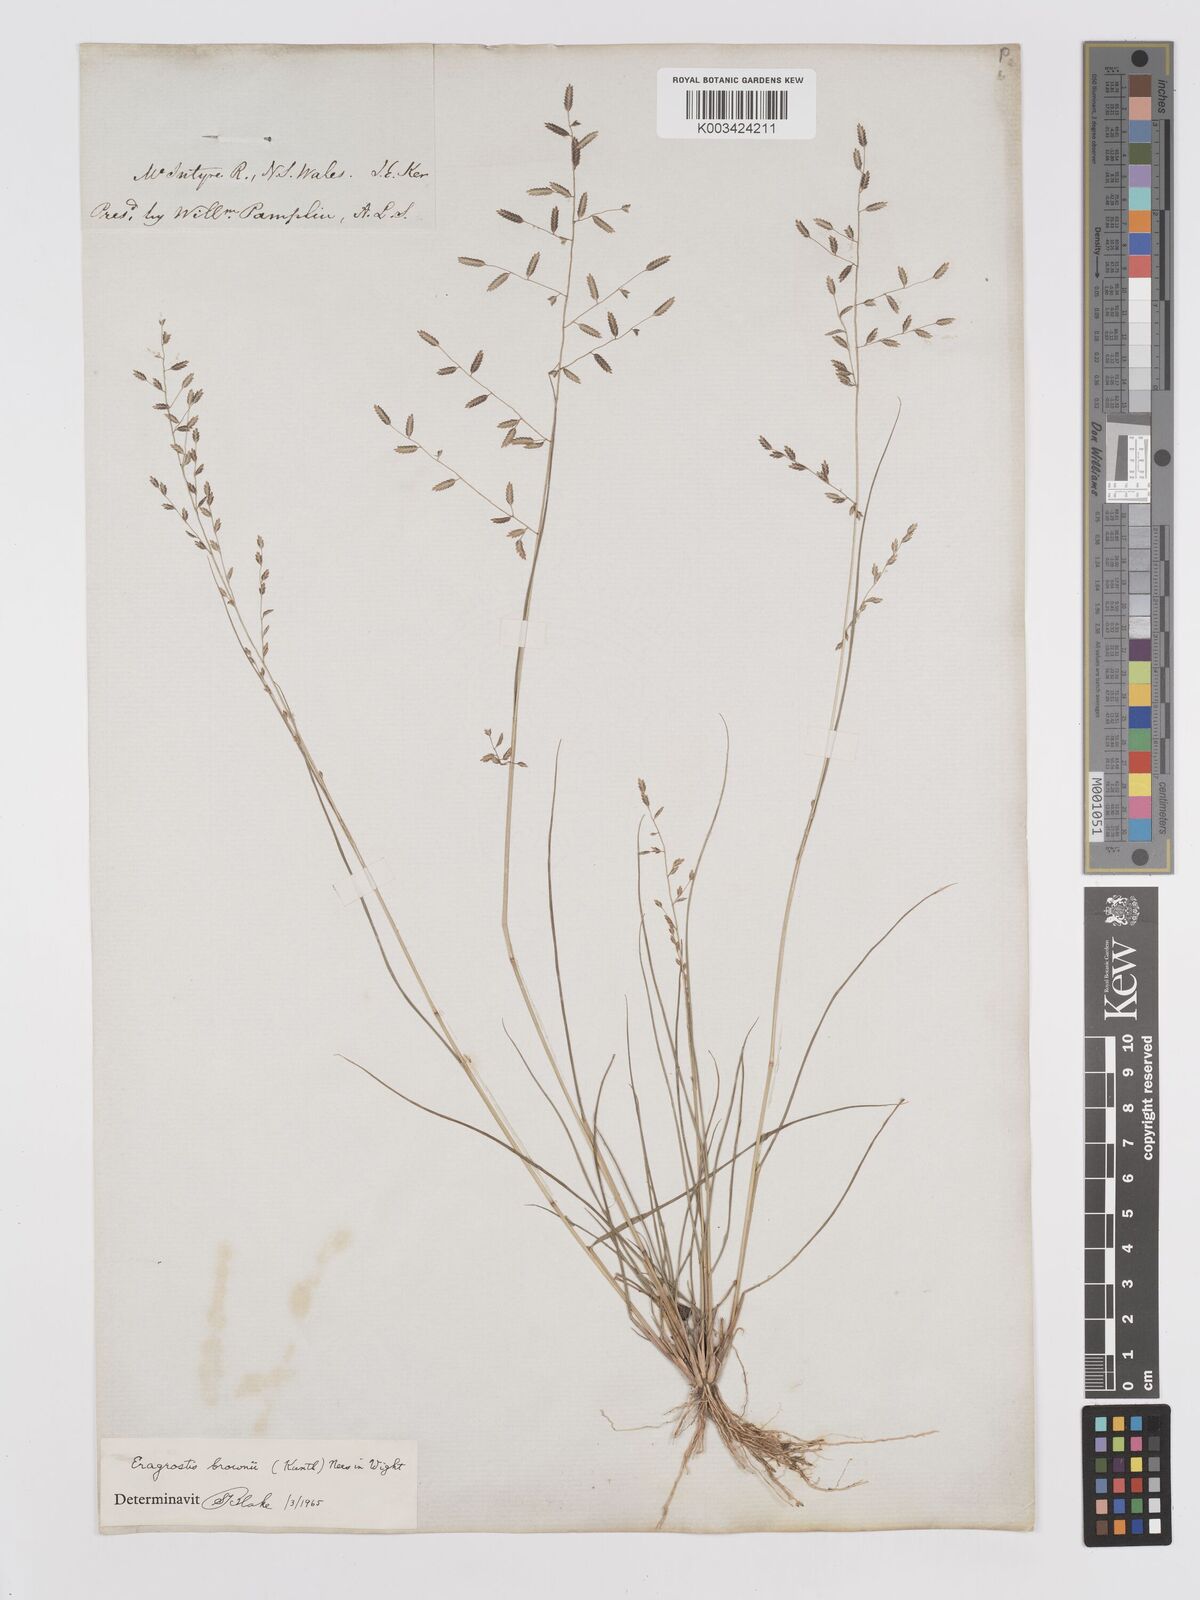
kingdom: Plantae
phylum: Tracheophyta
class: Liliopsida
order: Poales
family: Poaceae
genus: Eragrostis
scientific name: Eragrostis brownii
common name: Lovegrass
